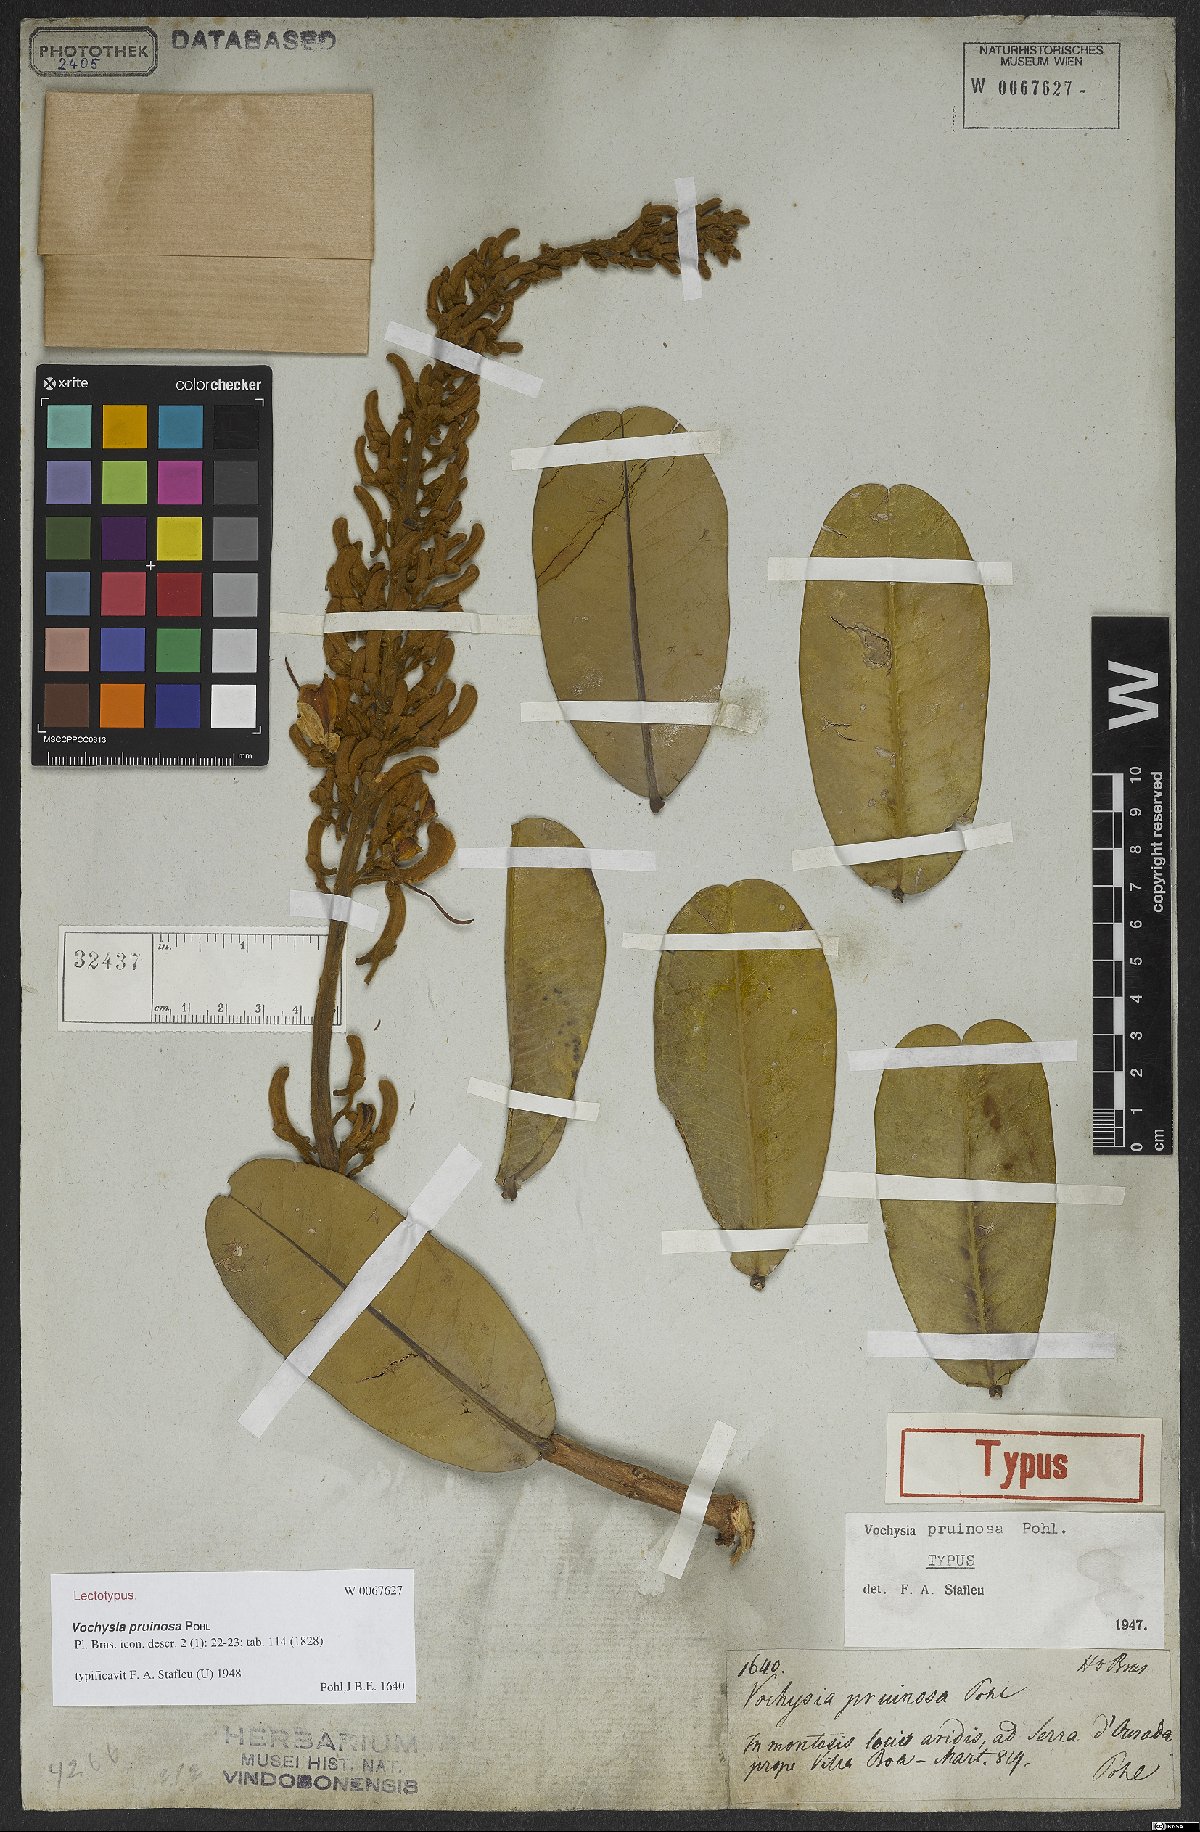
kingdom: Plantae
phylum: Tracheophyta
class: Magnoliopsida
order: Myrtales
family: Vochysiaceae
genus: Vochysia
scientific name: Vochysia pruinosa
